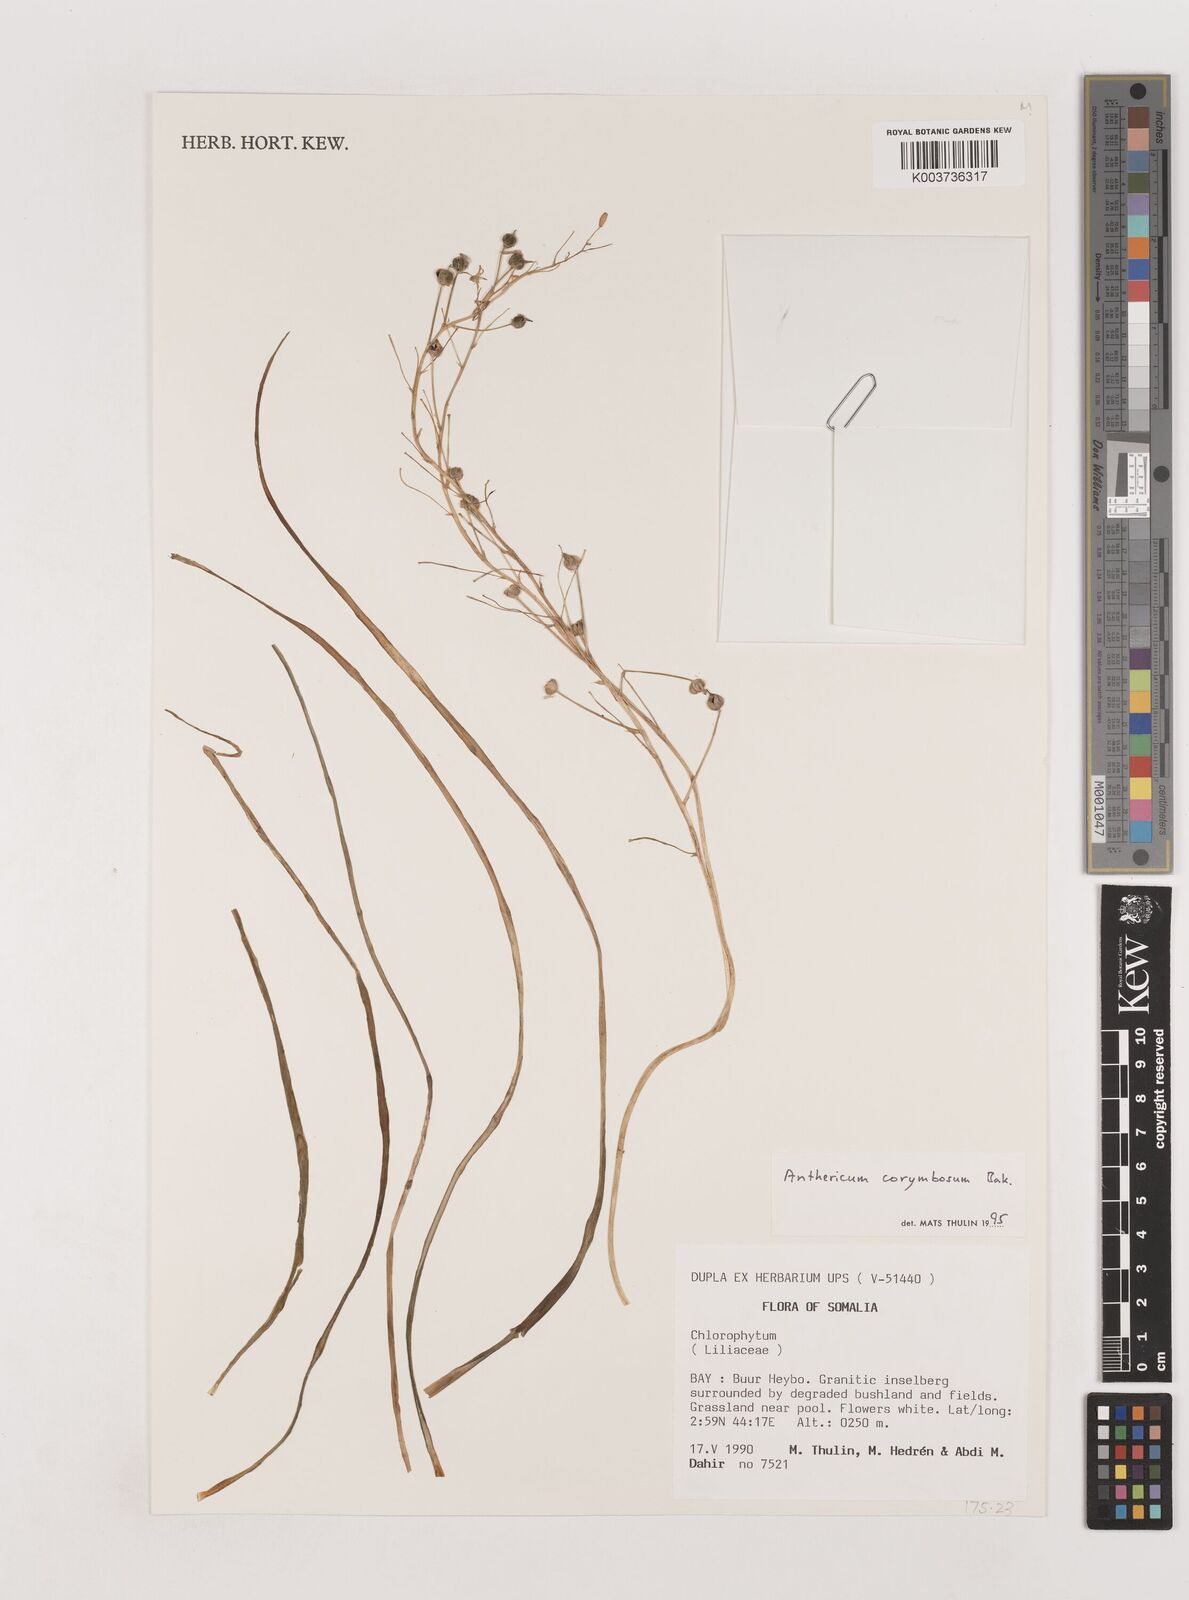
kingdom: Plantae
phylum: Tracheophyta
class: Liliopsida
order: Asparagales
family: Asparagaceae
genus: Anthericum
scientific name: Anthericum
